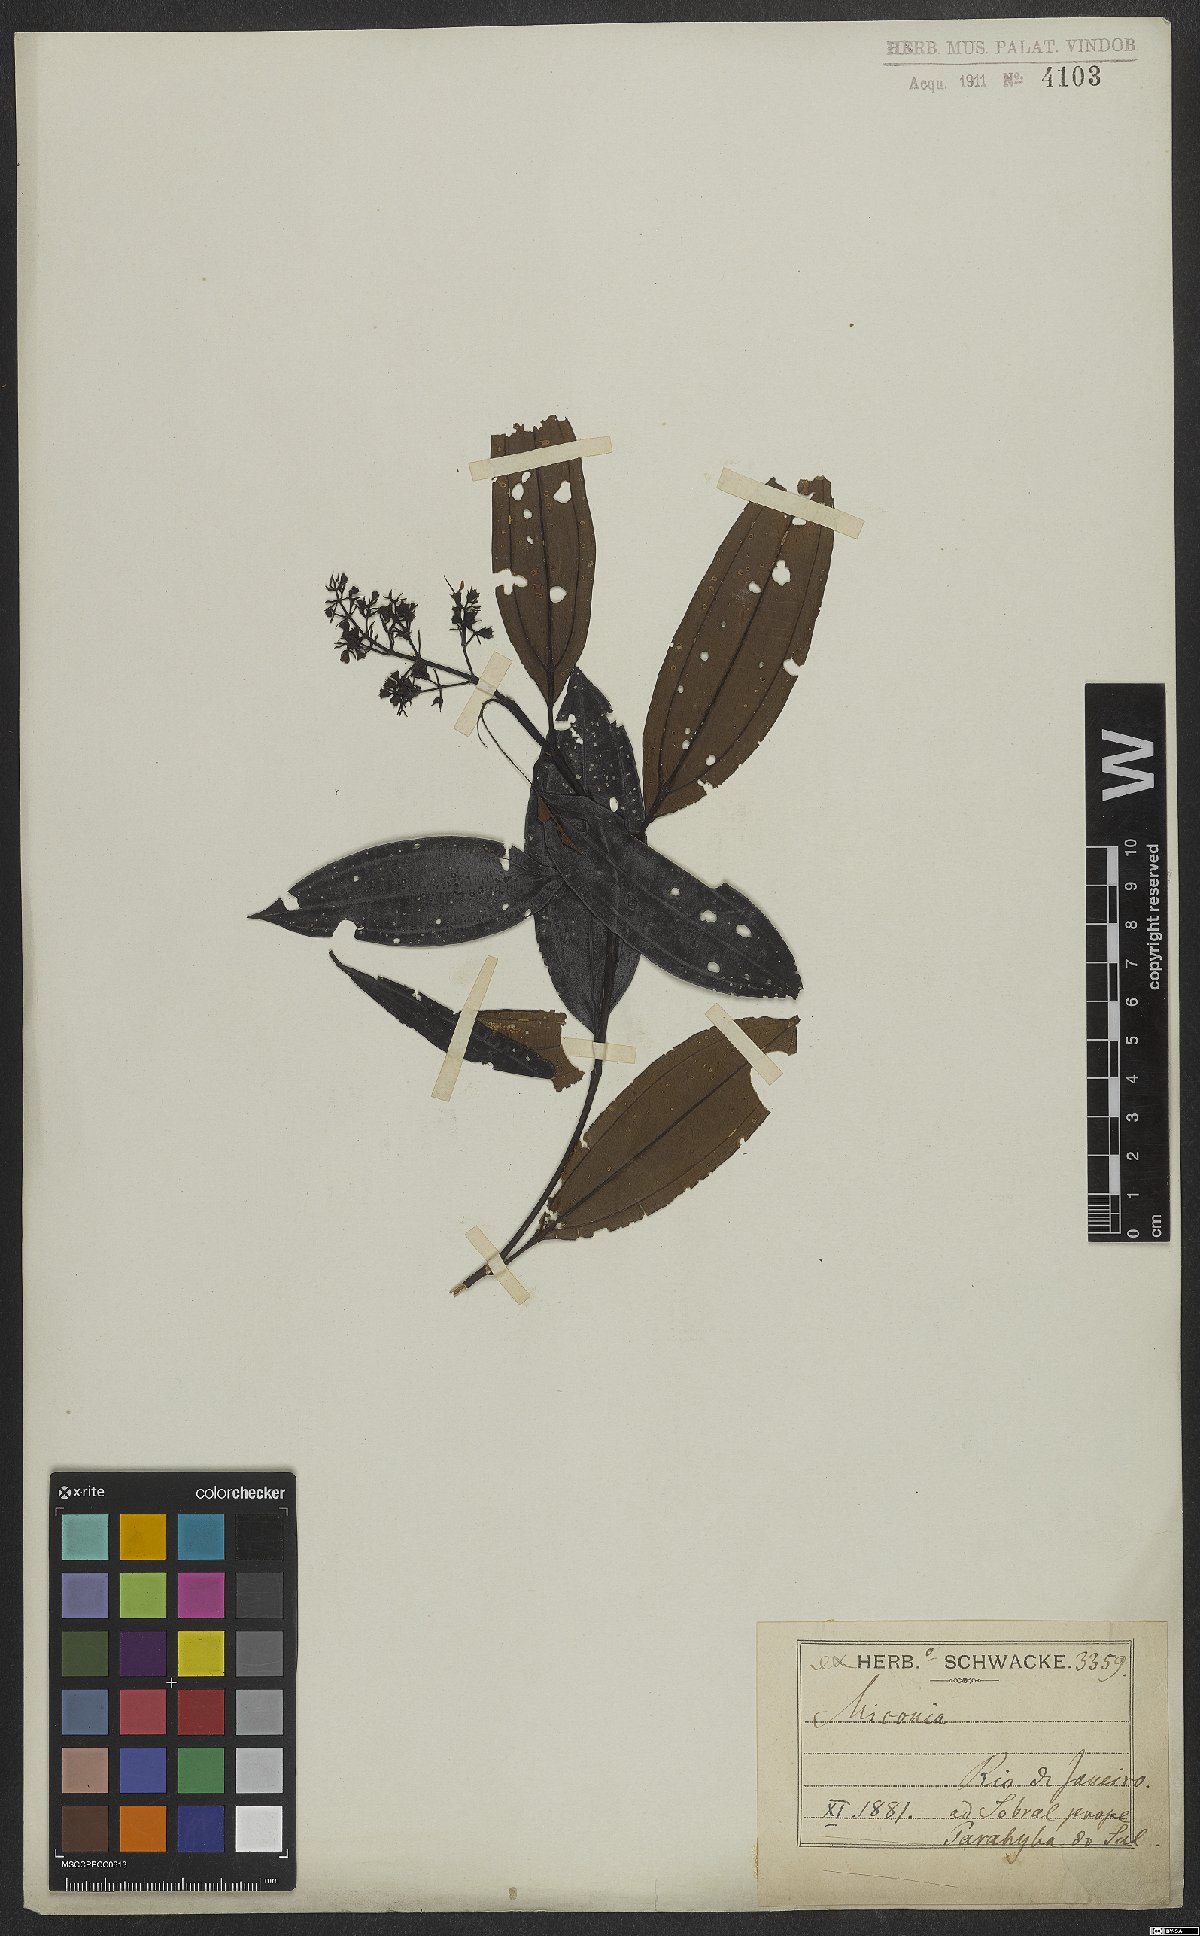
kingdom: Plantae
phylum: Tracheophyta
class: Magnoliopsida
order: Myrtales
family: Melastomataceae
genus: Miconia
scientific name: Miconia
